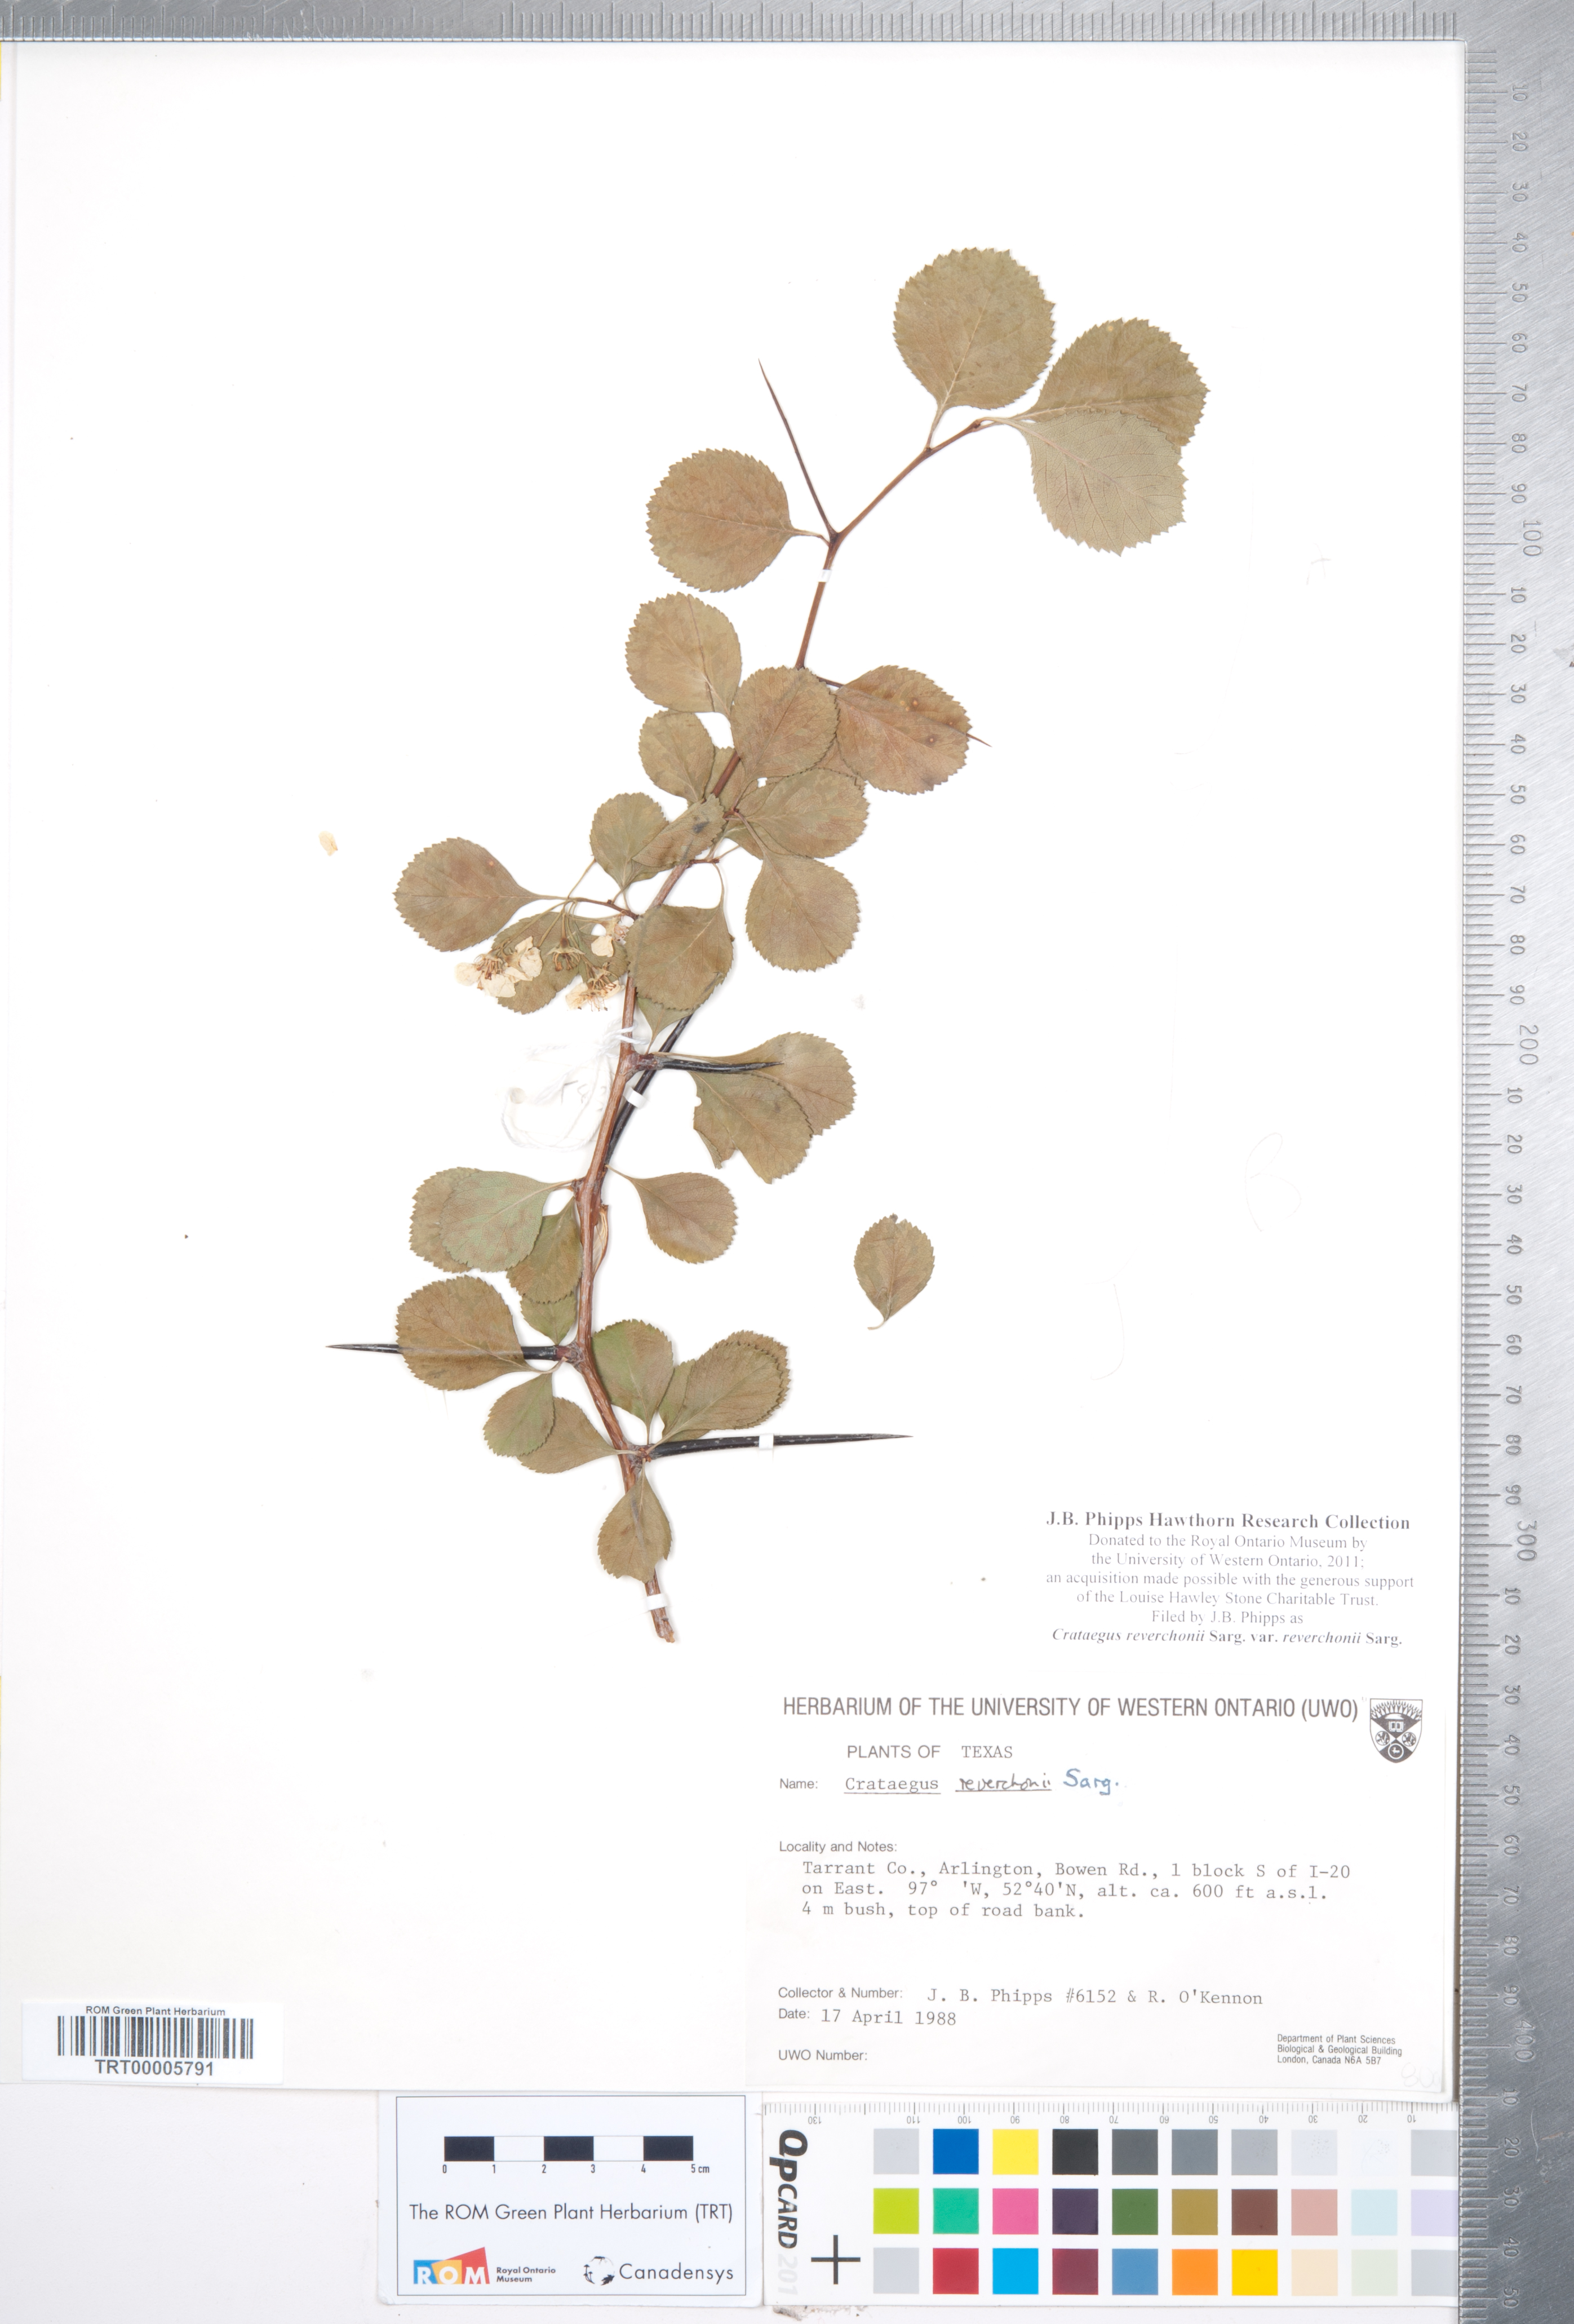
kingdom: Plantae
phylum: Tracheophyta
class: Magnoliopsida
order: Rosales
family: Rosaceae
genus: Crataegus
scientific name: Crataegus reverchonii
